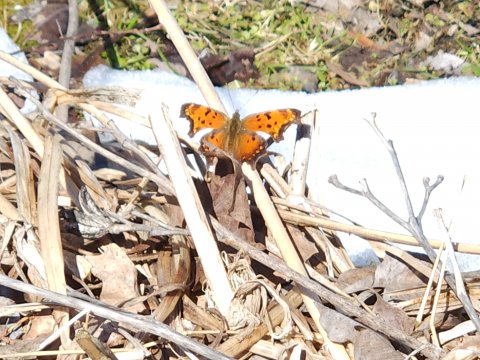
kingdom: Animalia
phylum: Arthropoda
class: Insecta
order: Lepidoptera
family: Nymphalidae
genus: Polygonia
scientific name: Polygonia progne
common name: Gray Comma
